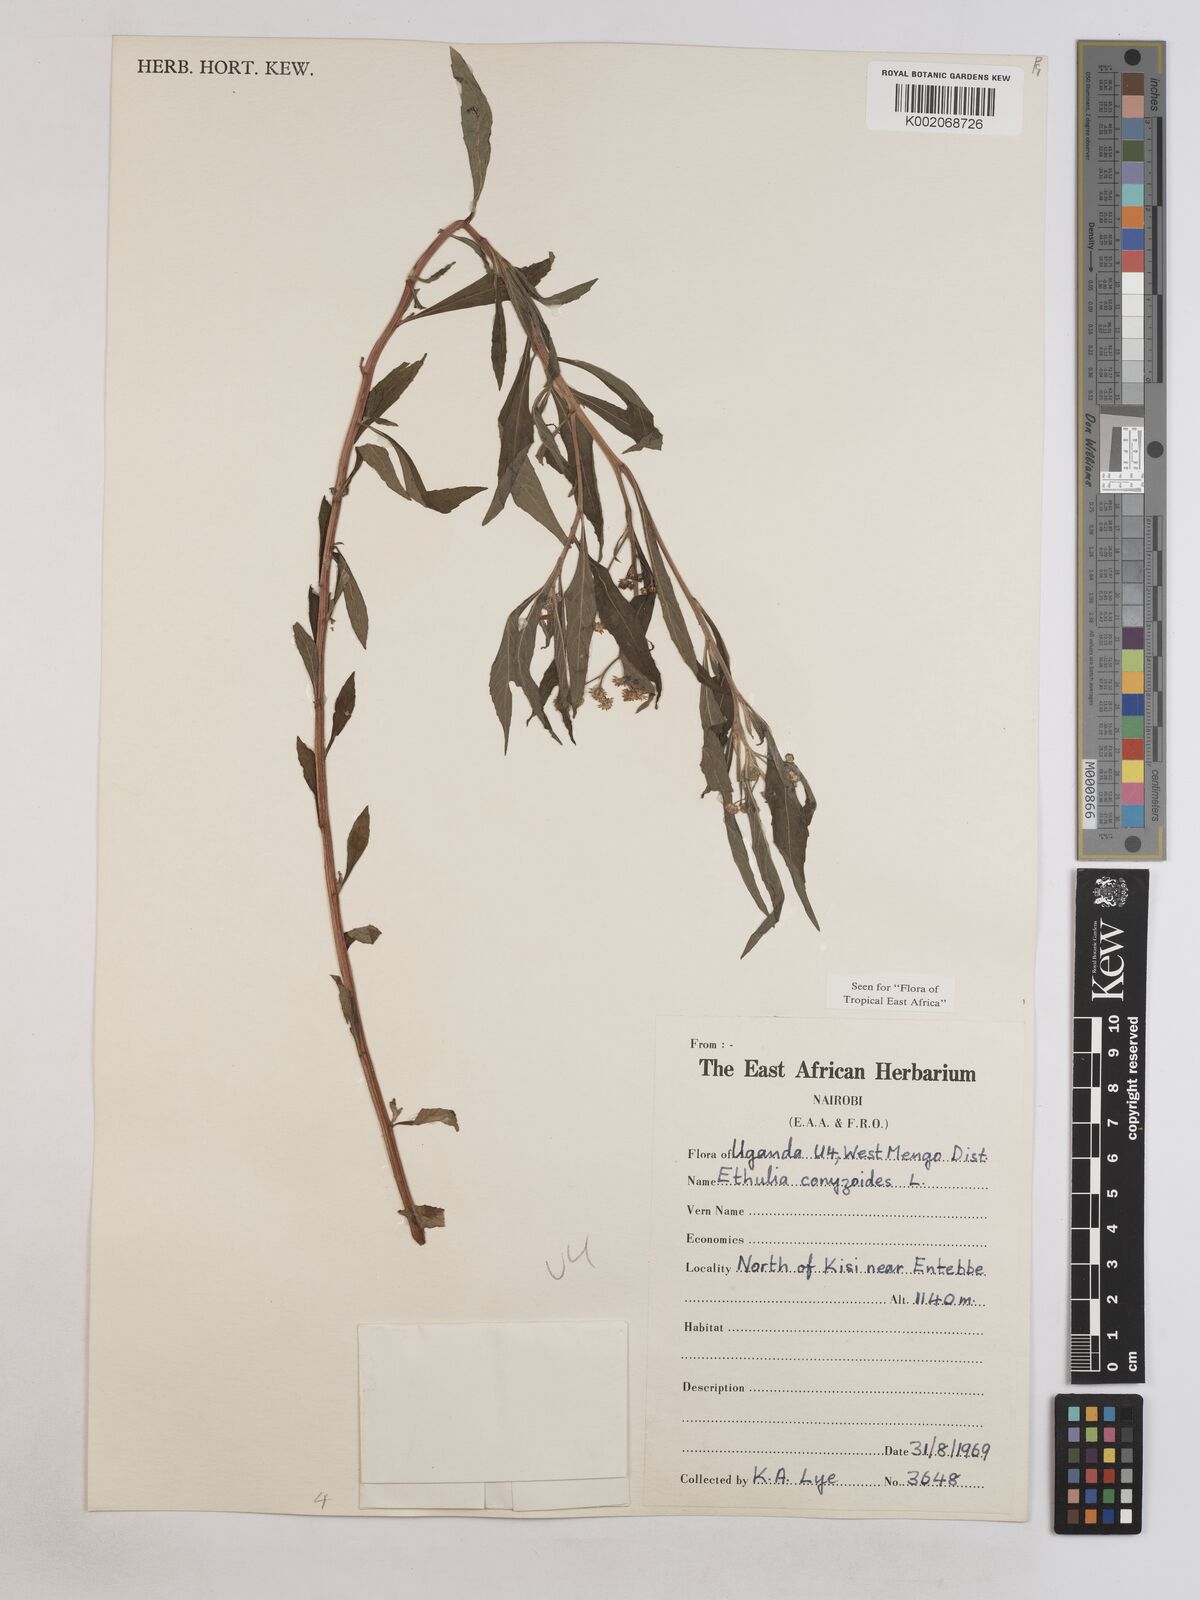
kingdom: Plantae
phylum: Tracheophyta
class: Magnoliopsida
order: Asterales
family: Asteraceae
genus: Ethulia
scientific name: Ethulia conyzoides
